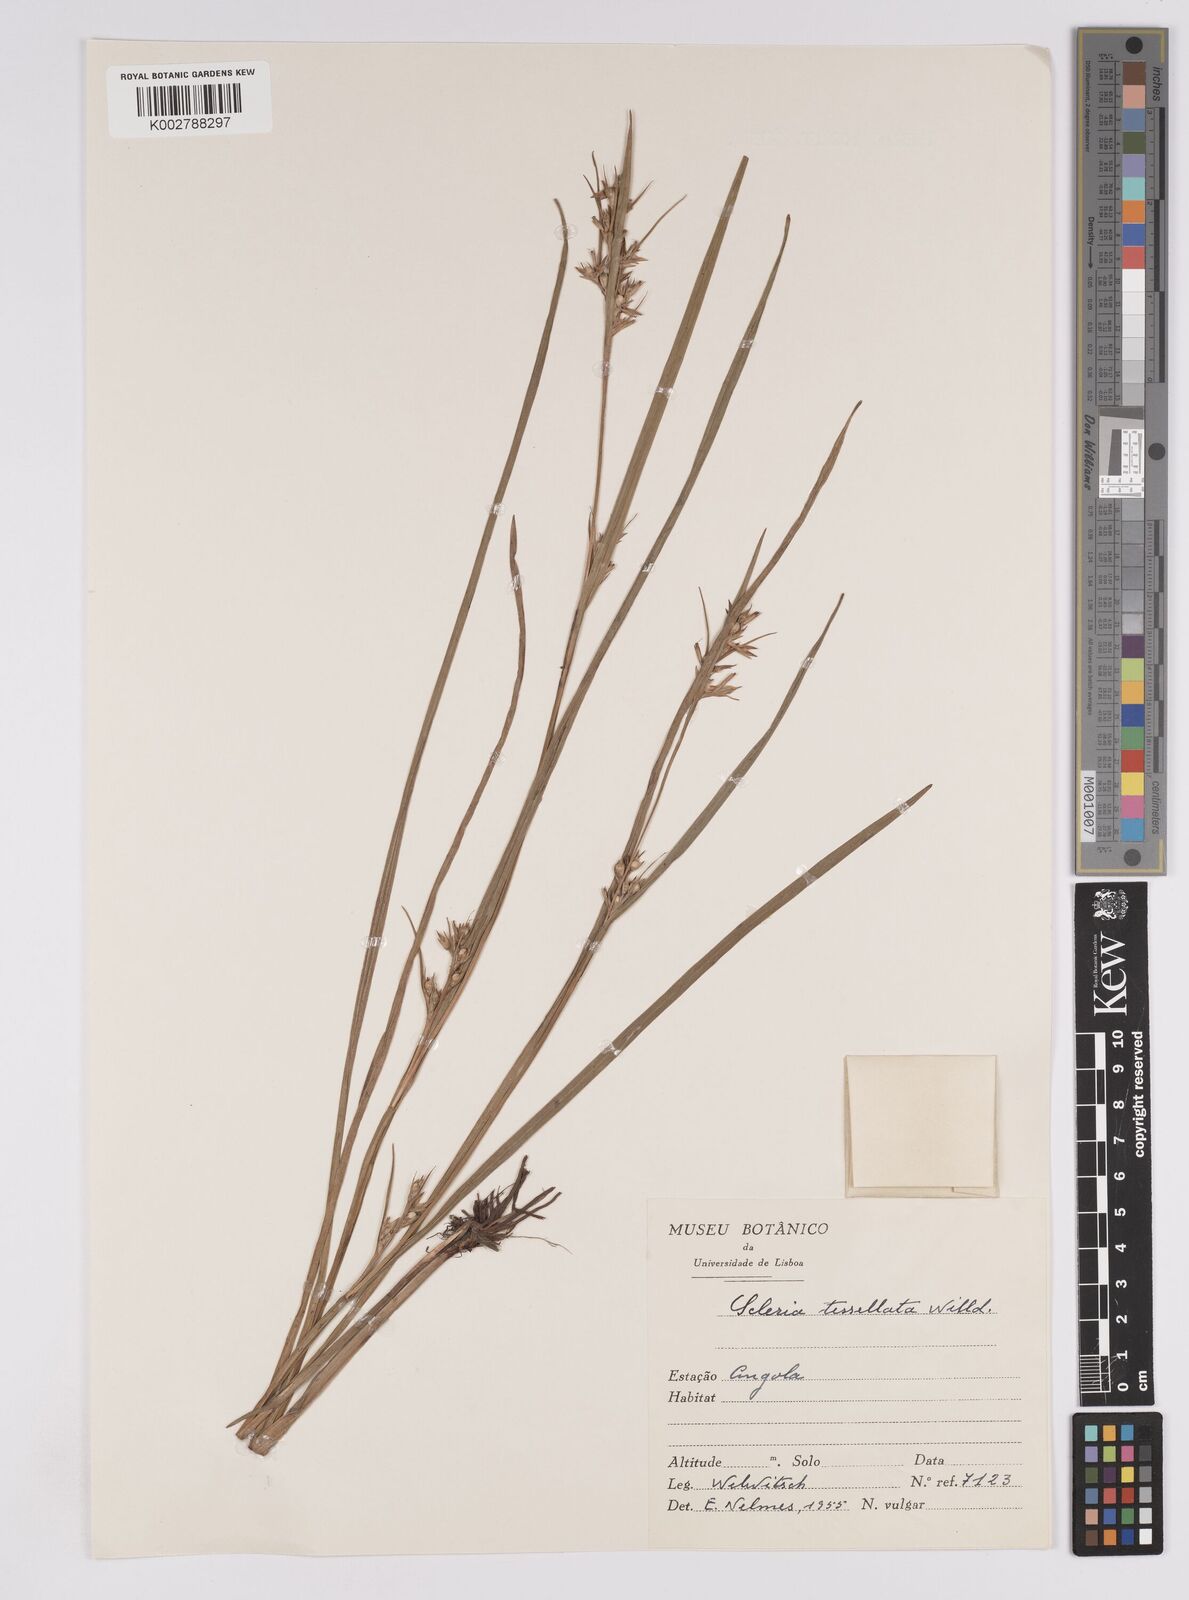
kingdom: Plantae
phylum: Tracheophyta
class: Liliopsida
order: Poales
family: Cyperaceae
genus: Scleria
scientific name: Scleria
